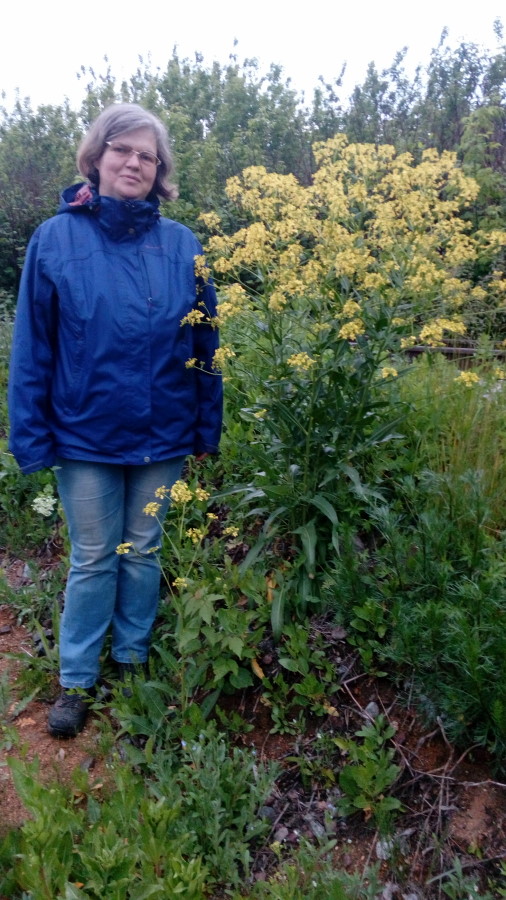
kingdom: Plantae
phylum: Tracheophyta
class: Magnoliopsida
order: Brassicales
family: Brassicaceae
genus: Barbarea
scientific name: Barbarea vulgaris
